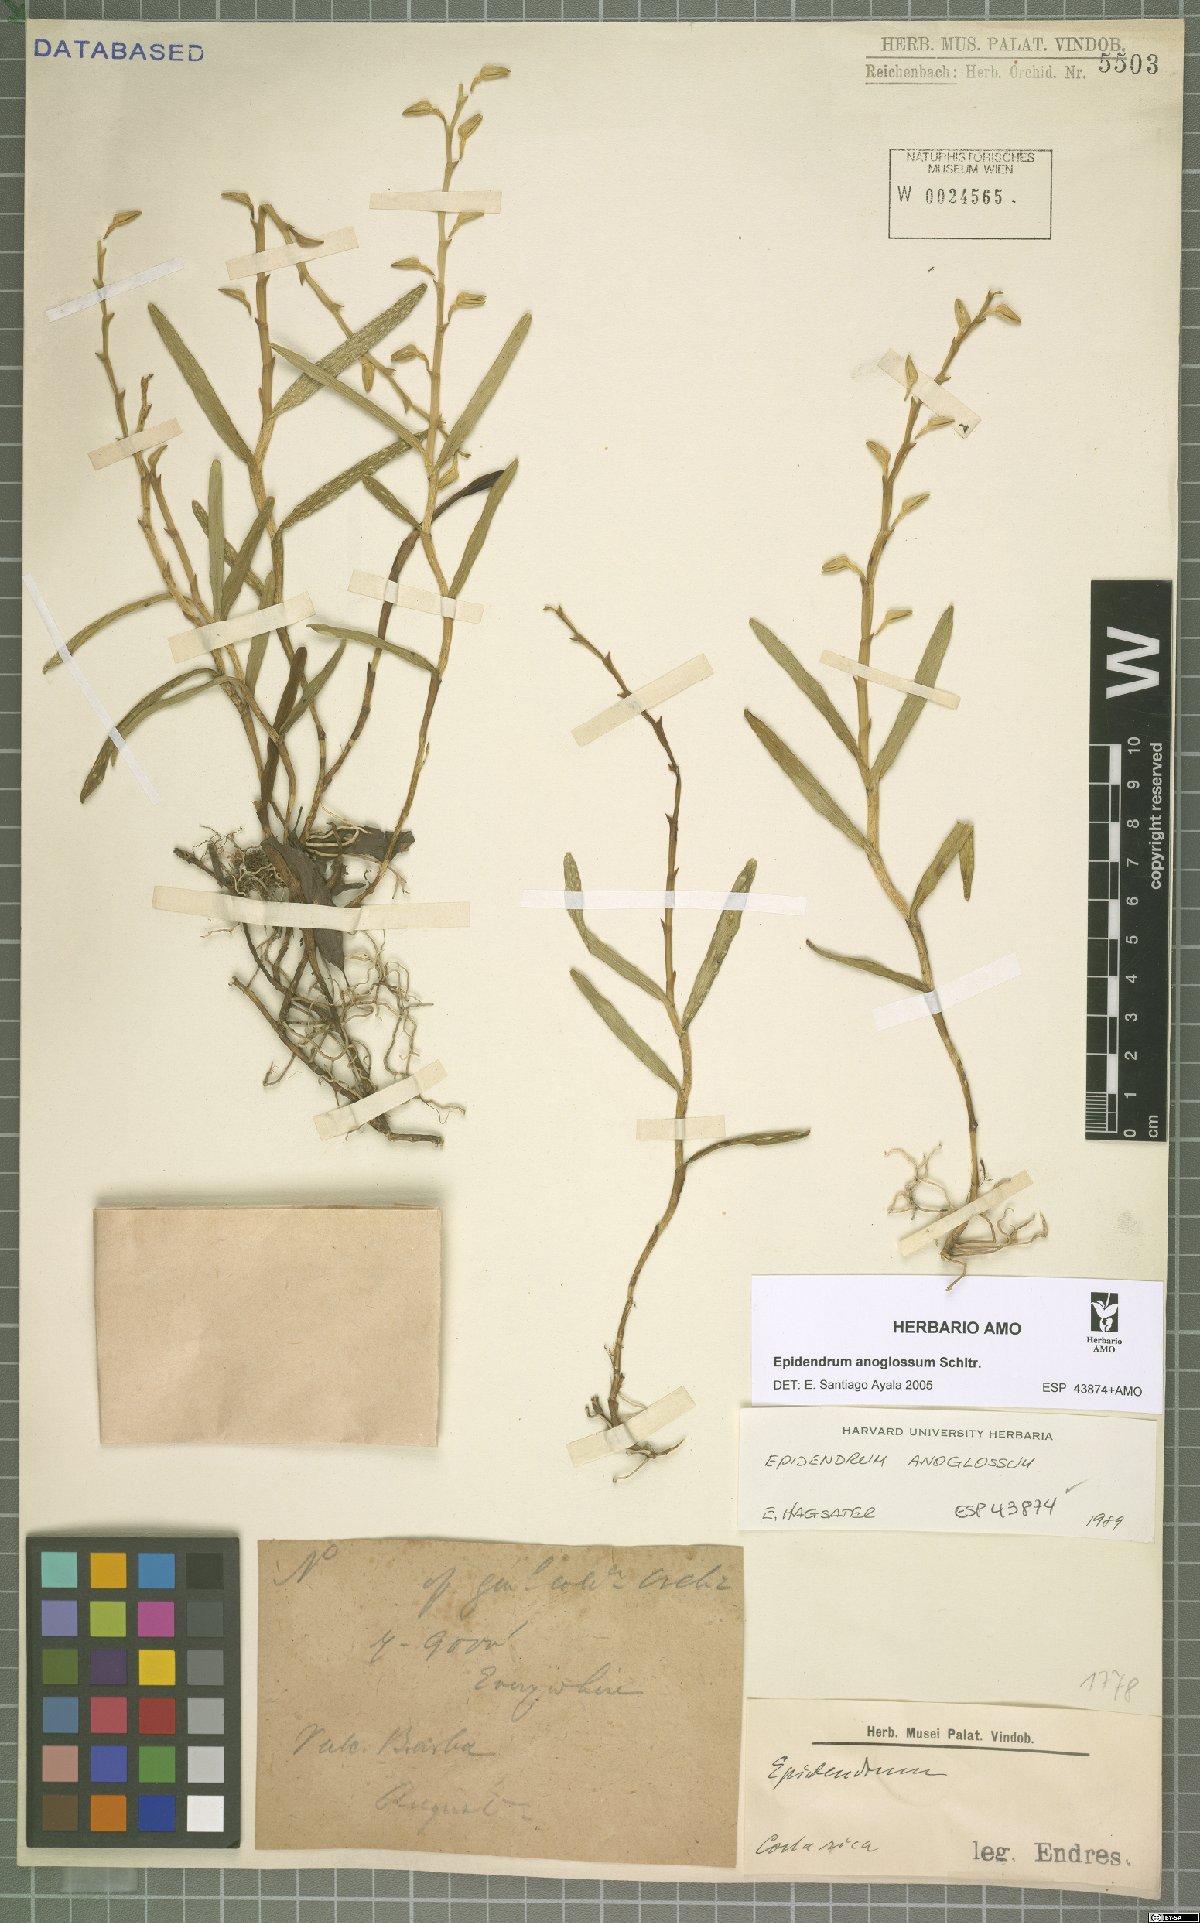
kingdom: Plantae
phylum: Tracheophyta
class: Liliopsida
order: Asparagales
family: Orchidaceae
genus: Epidendrum
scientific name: Epidendrum anoglossum
